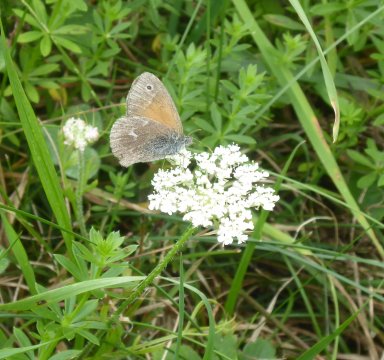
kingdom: Animalia
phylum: Arthropoda
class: Insecta
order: Lepidoptera
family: Nymphalidae
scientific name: Nymphalidae
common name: Brushfoots
